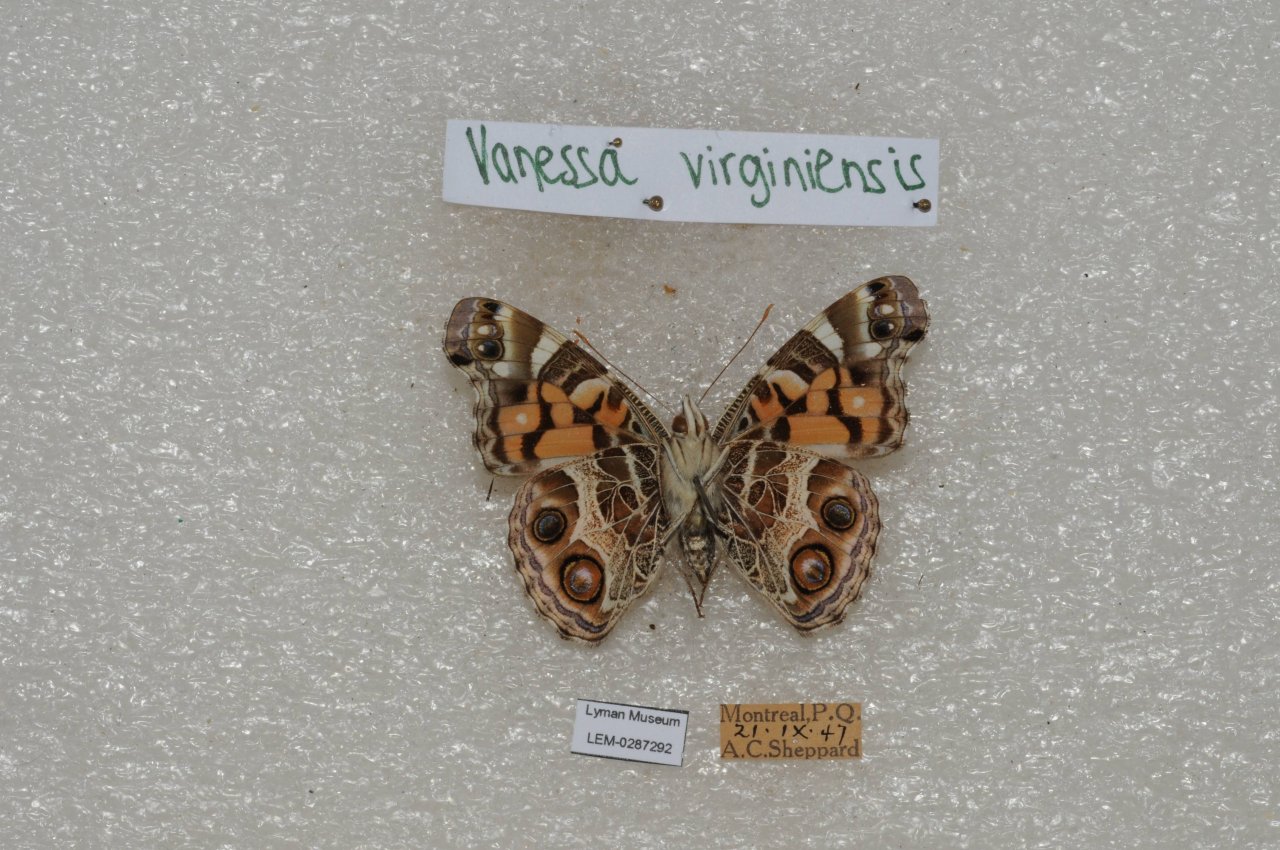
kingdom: Animalia
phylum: Arthropoda
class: Insecta
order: Lepidoptera
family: Nymphalidae
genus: Vanessa
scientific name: Vanessa virginiensis
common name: American Lady
